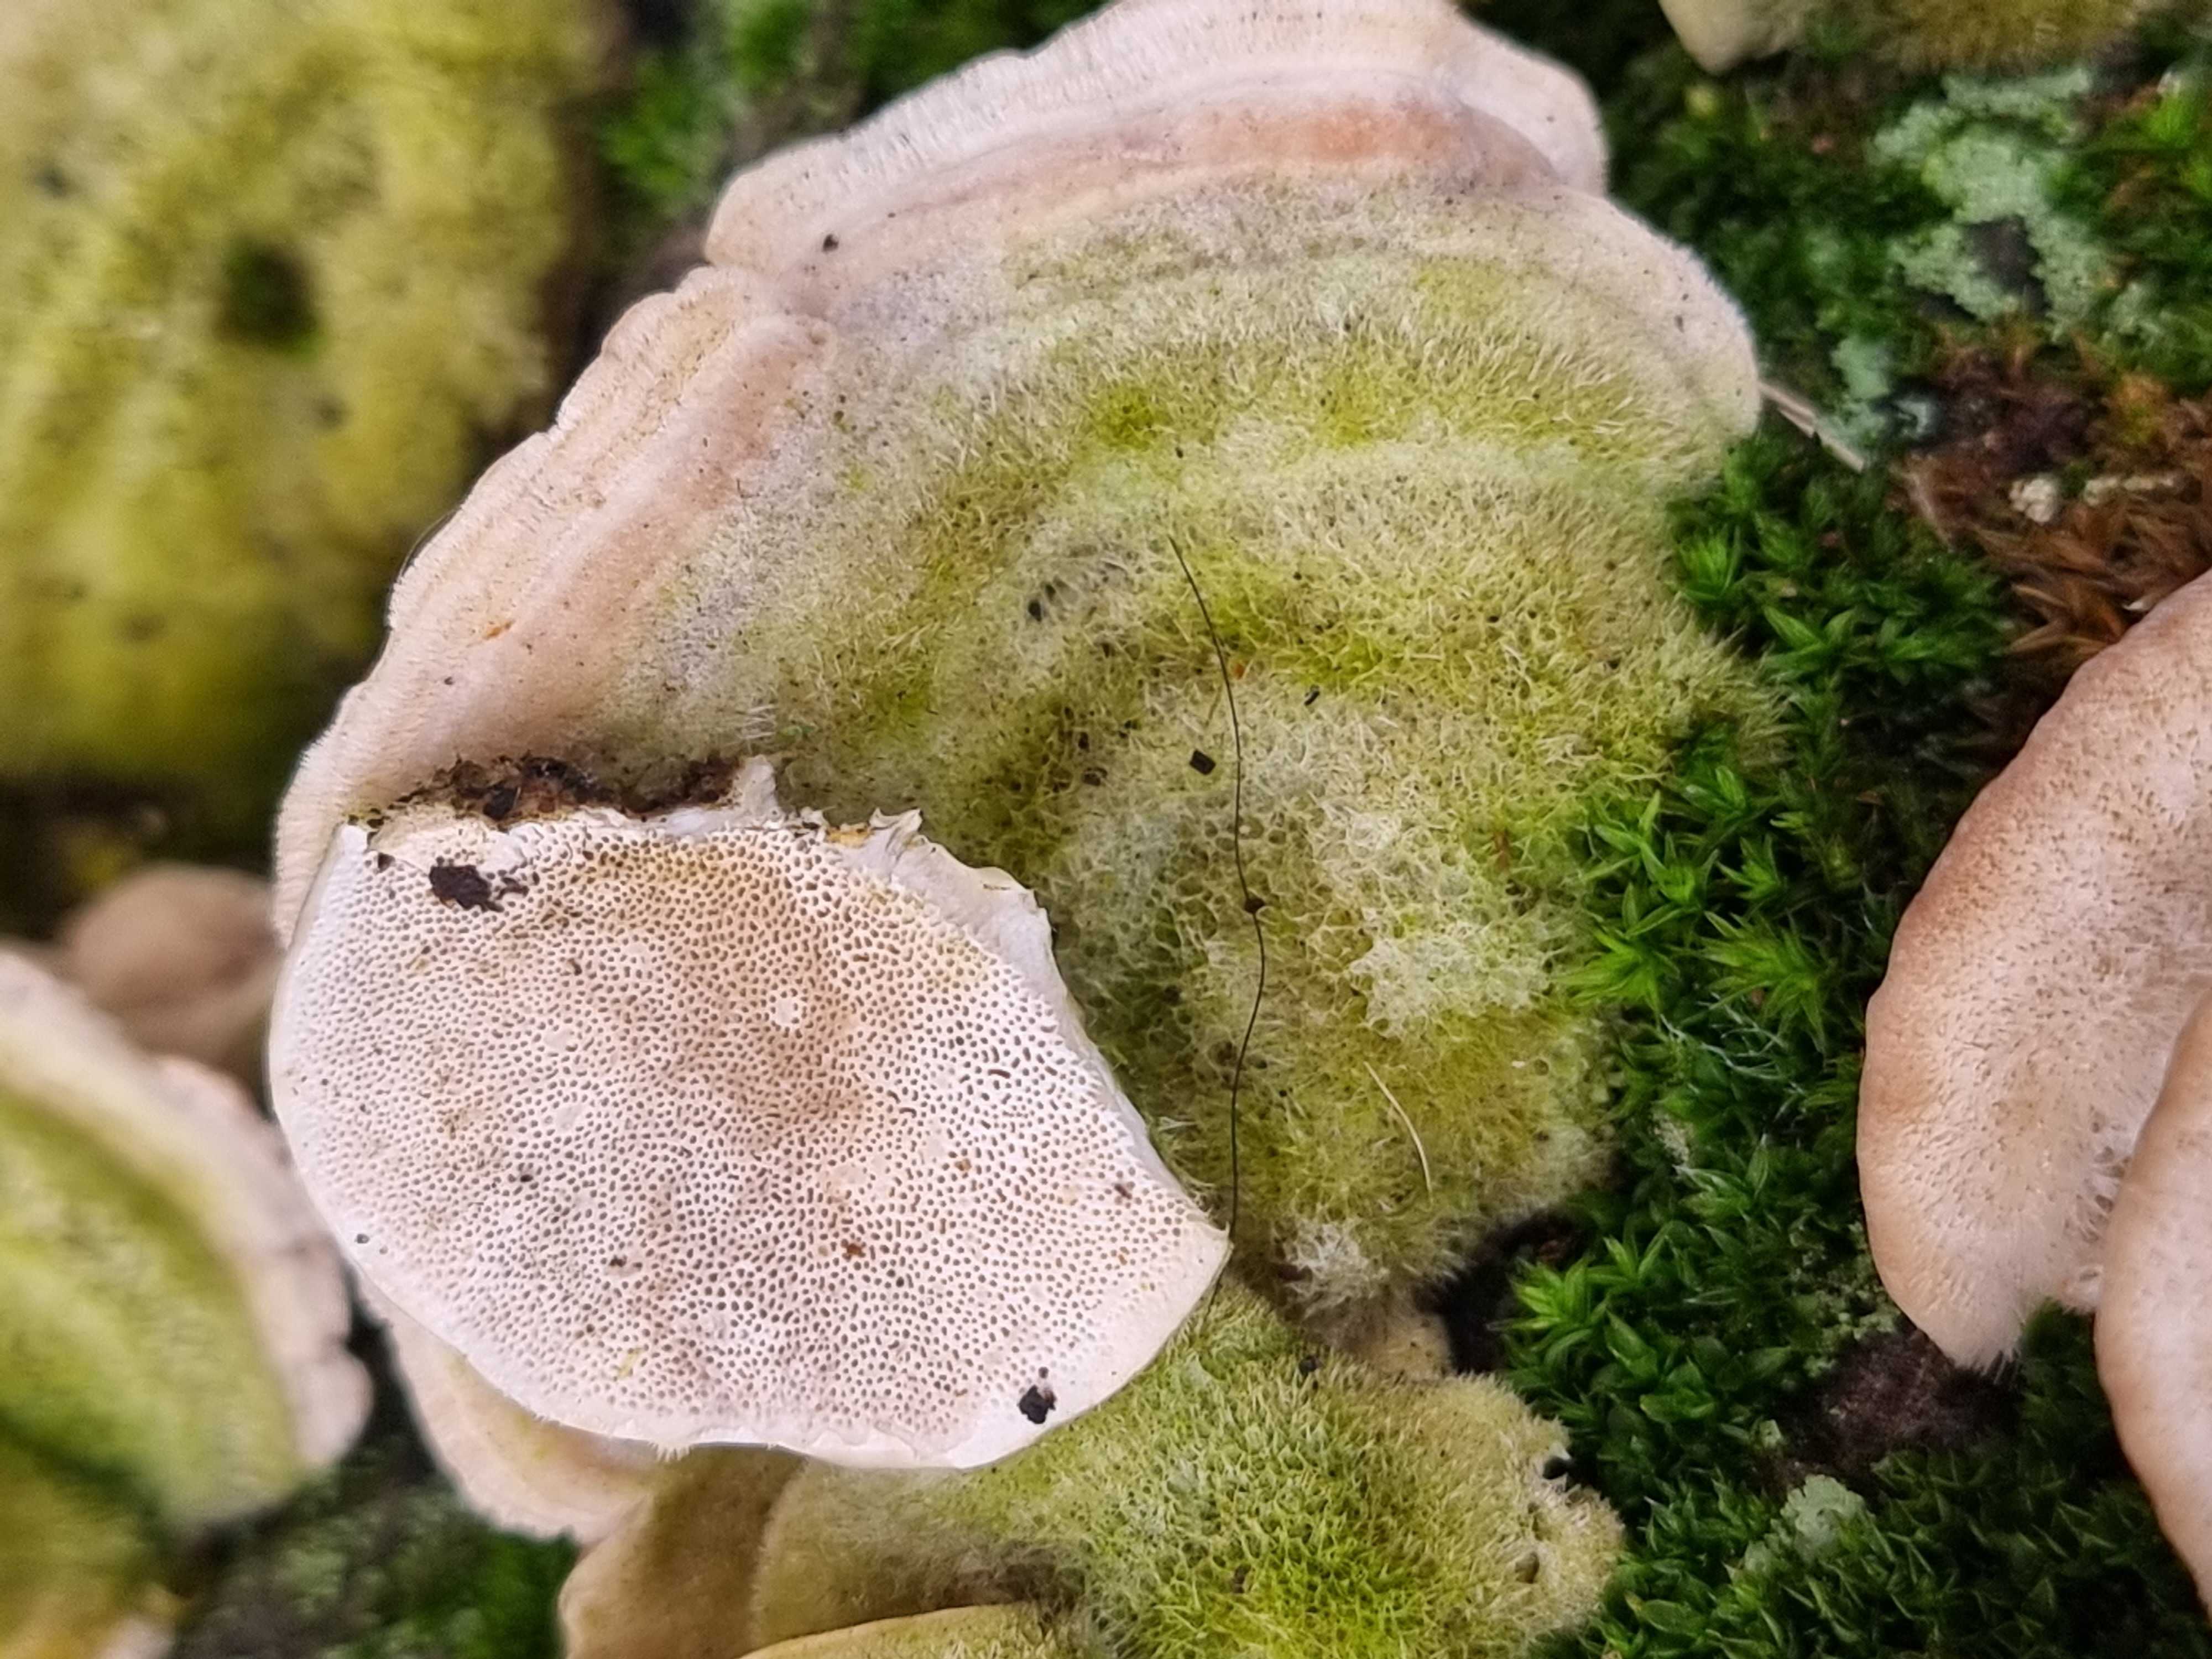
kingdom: Fungi
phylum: Basidiomycota
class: Agaricomycetes
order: Polyporales
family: Polyporaceae
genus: Trametes
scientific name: Trametes hirsuta
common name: håret læderporesvamp
